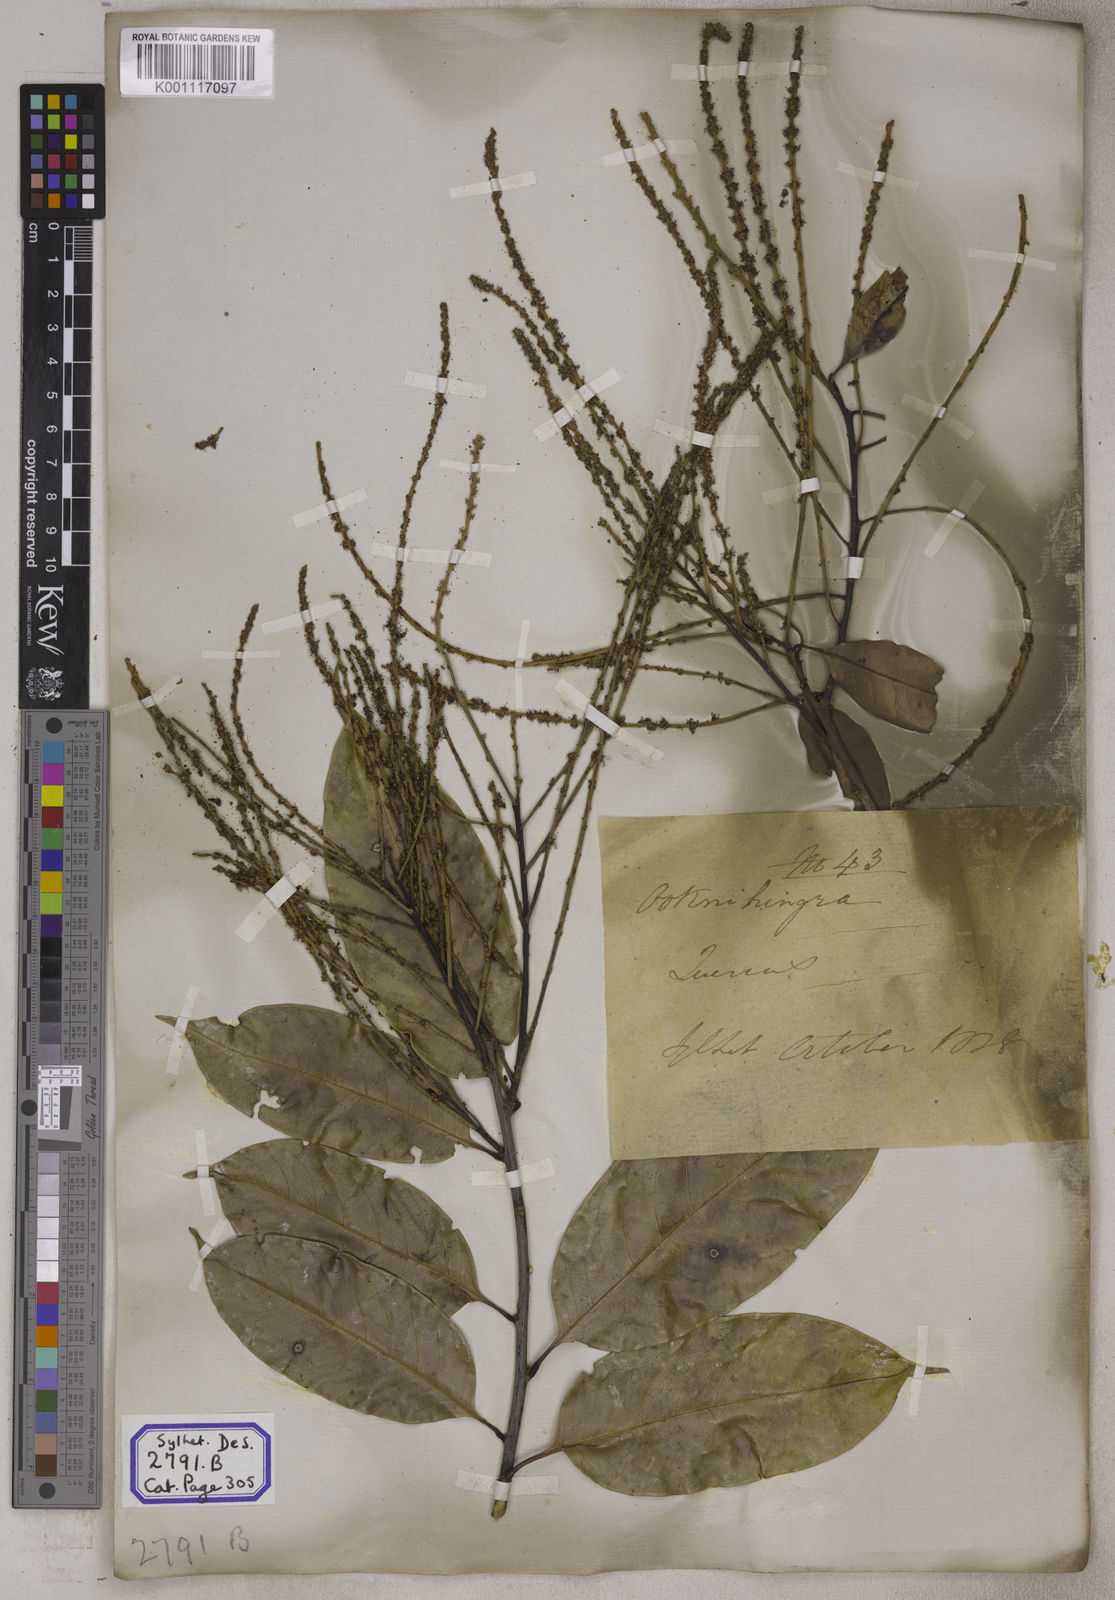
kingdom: Plantae
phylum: Tracheophyta
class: Magnoliopsida
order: Fagales
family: Fagaceae
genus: Castanopsis
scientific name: Castanopsis inermis
